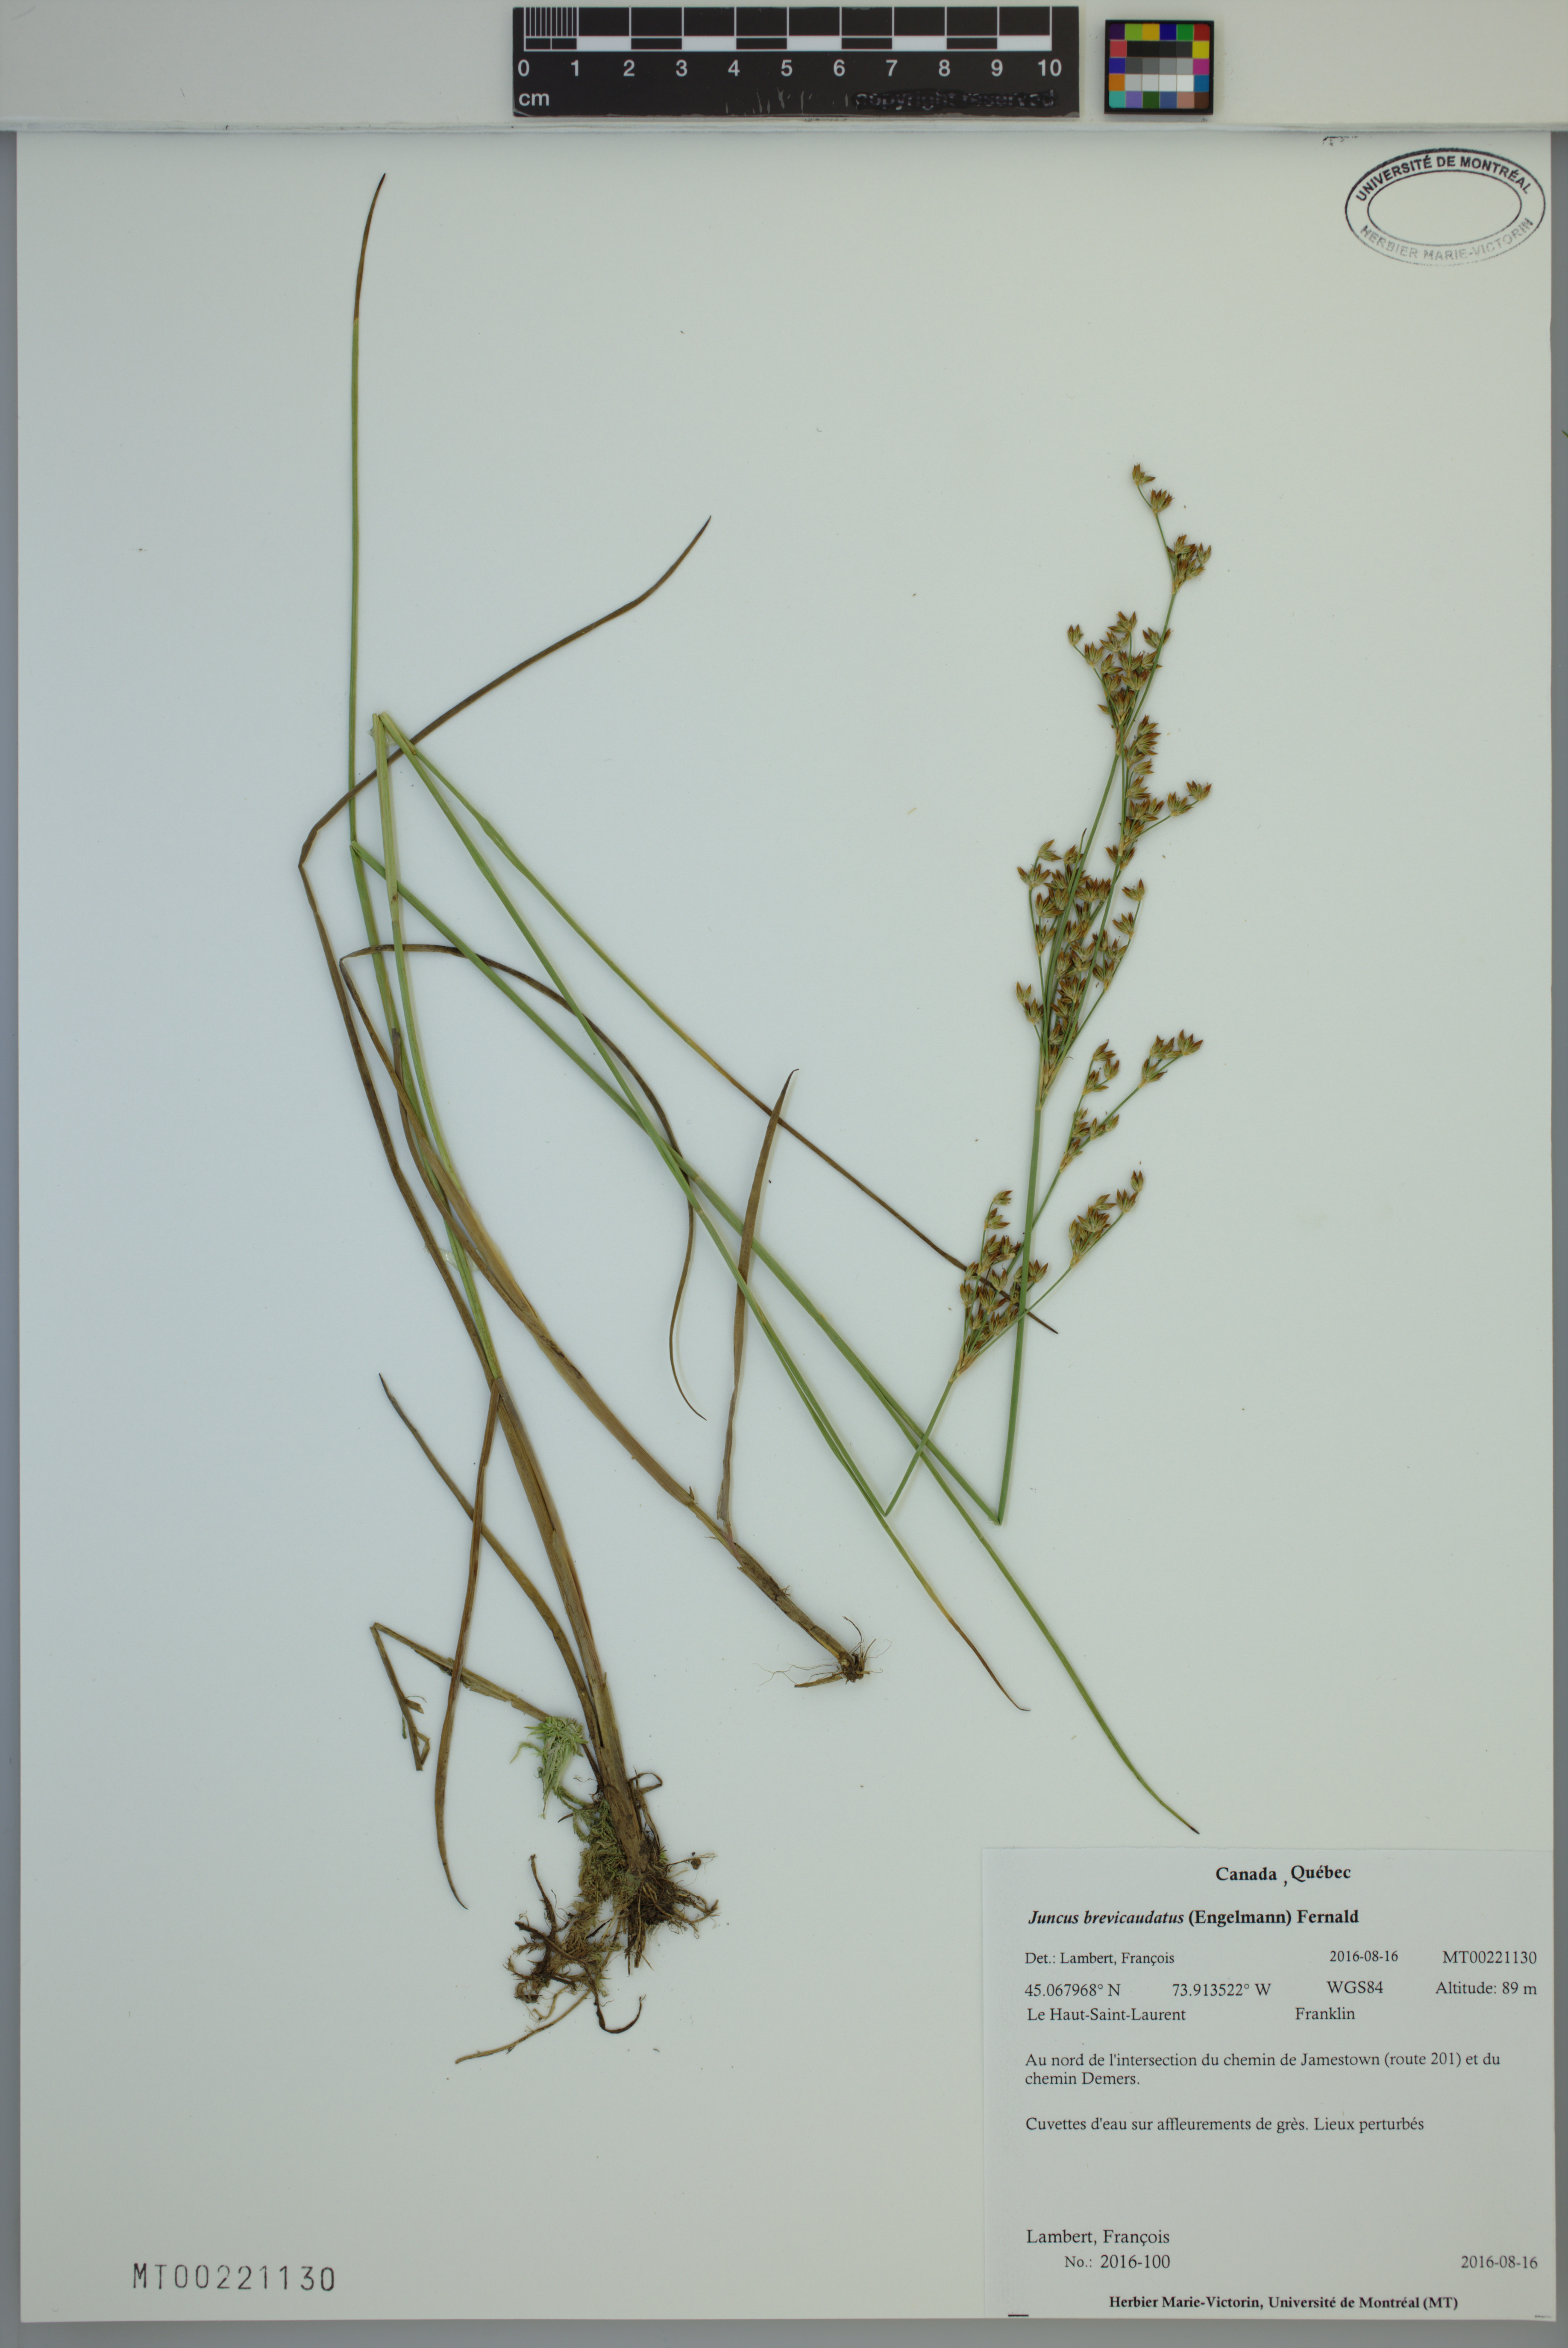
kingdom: Plantae
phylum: Tracheophyta
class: Liliopsida
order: Poales
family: Juncaceae
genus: Juncus
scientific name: Juncus brevicaudatus
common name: Narrow-panicle rush
